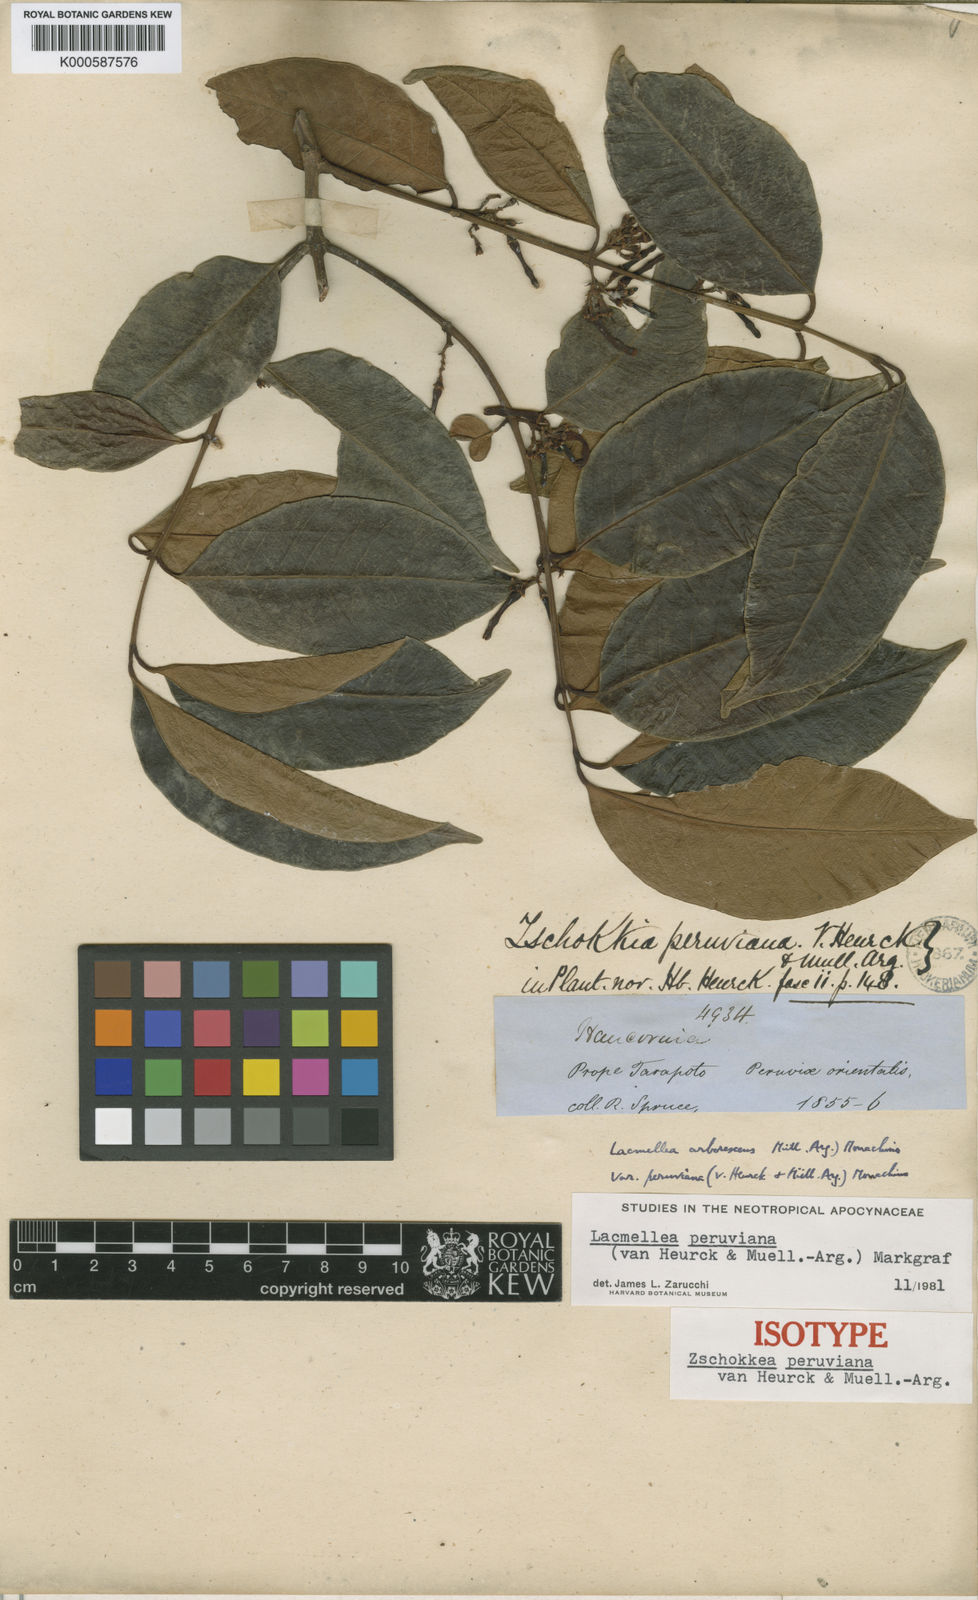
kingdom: Plantae
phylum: Tracheophyta
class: Magnoliopsida
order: Gentianales
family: Apocynaceae
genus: Lacmellea
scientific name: Lacmellea
